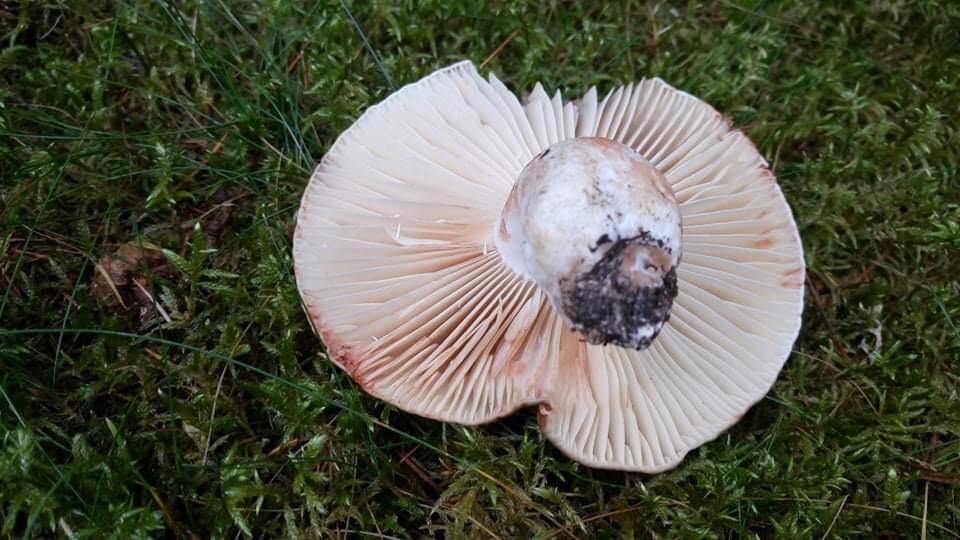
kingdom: Fungi
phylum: Basidiomycota
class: Agaricomycetes
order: Russulales
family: Russulaceae
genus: Russula
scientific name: Russula adusta
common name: sværtende skørhat
